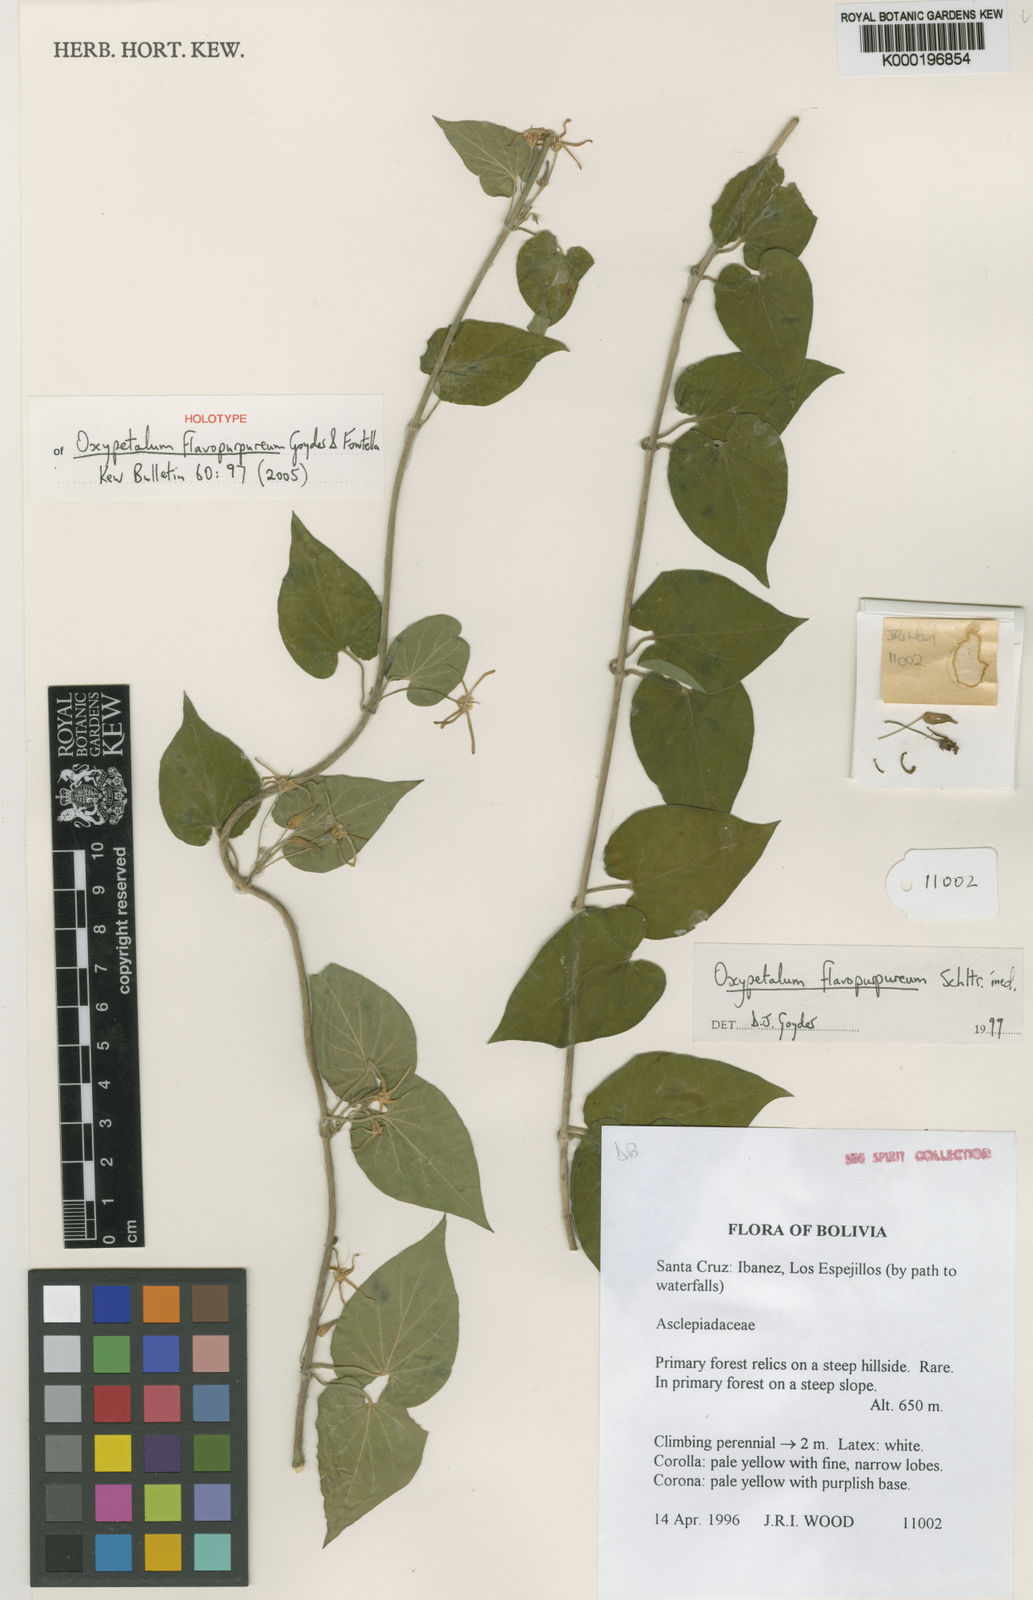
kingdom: Plantae
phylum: Tracheophyta
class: Magnoliopsida
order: Gentianales
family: Apocynaceae
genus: Oxypetalum
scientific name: Oxypetalum flavopurpureum
